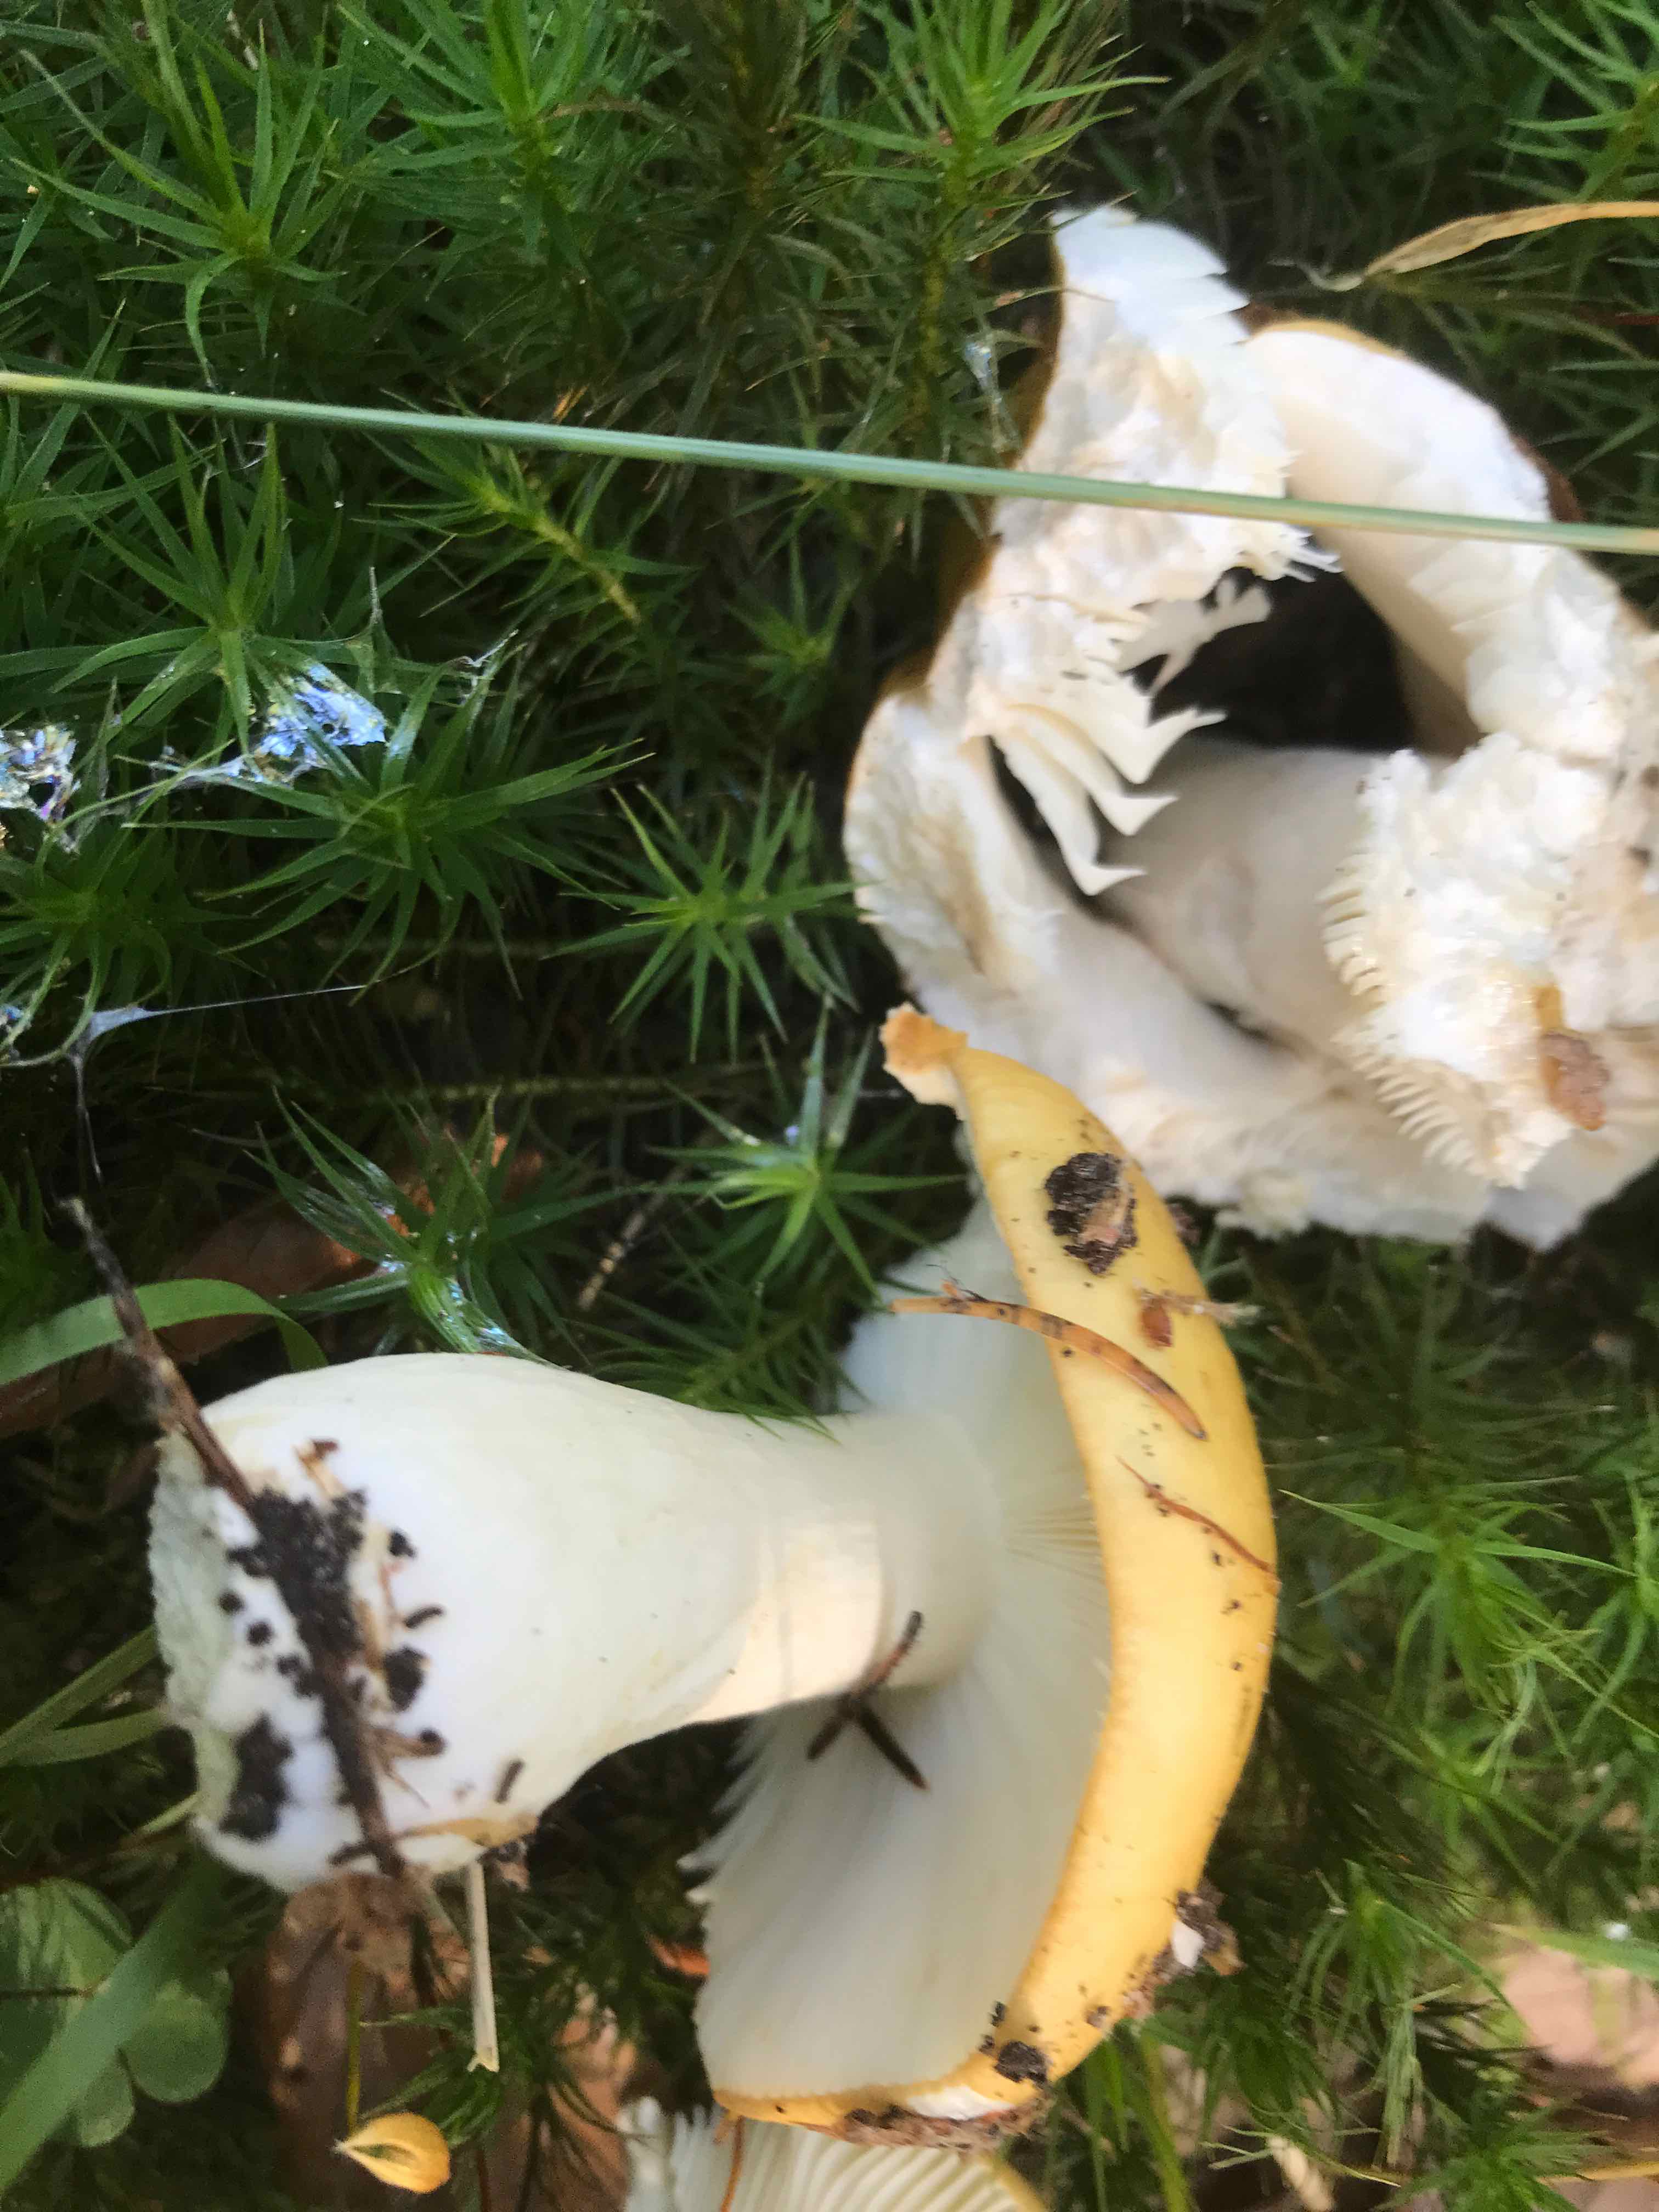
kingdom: Fungi
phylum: Basidiomycota
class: Agaricomycetes
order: Russulales
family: Russulaceae
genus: Russula
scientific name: Russula ochroleuca
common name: okkergul skørhat
